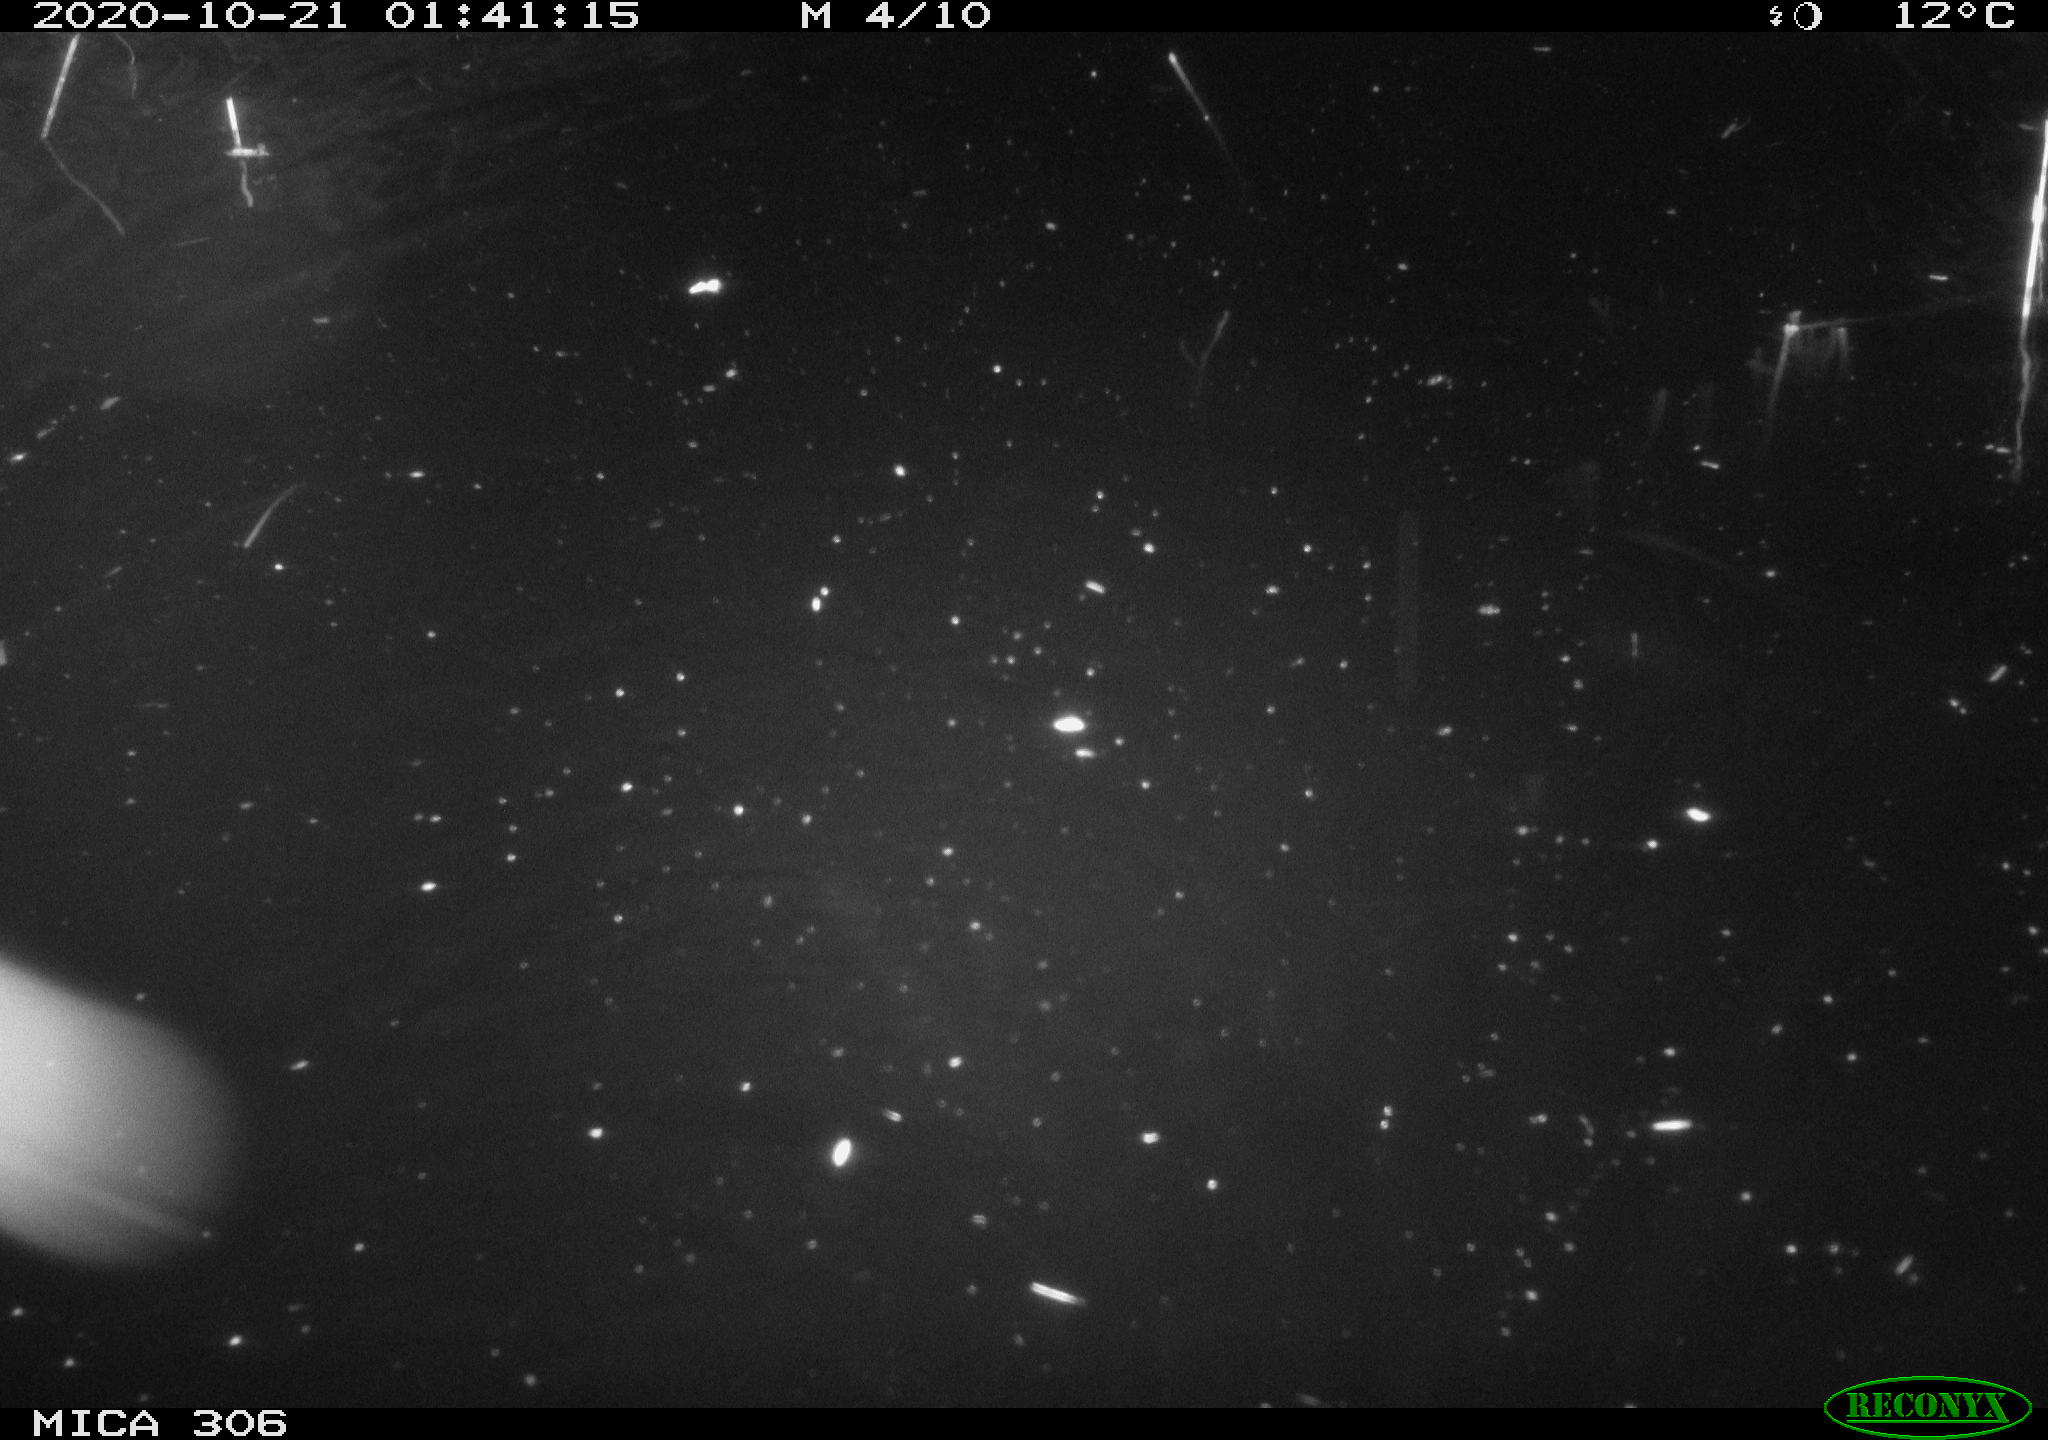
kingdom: Animalia
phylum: Chordata
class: Mammalia
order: Rodentia
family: Cricetidae
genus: Ondatra
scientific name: Ondatra zibethicus
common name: Muskrat
